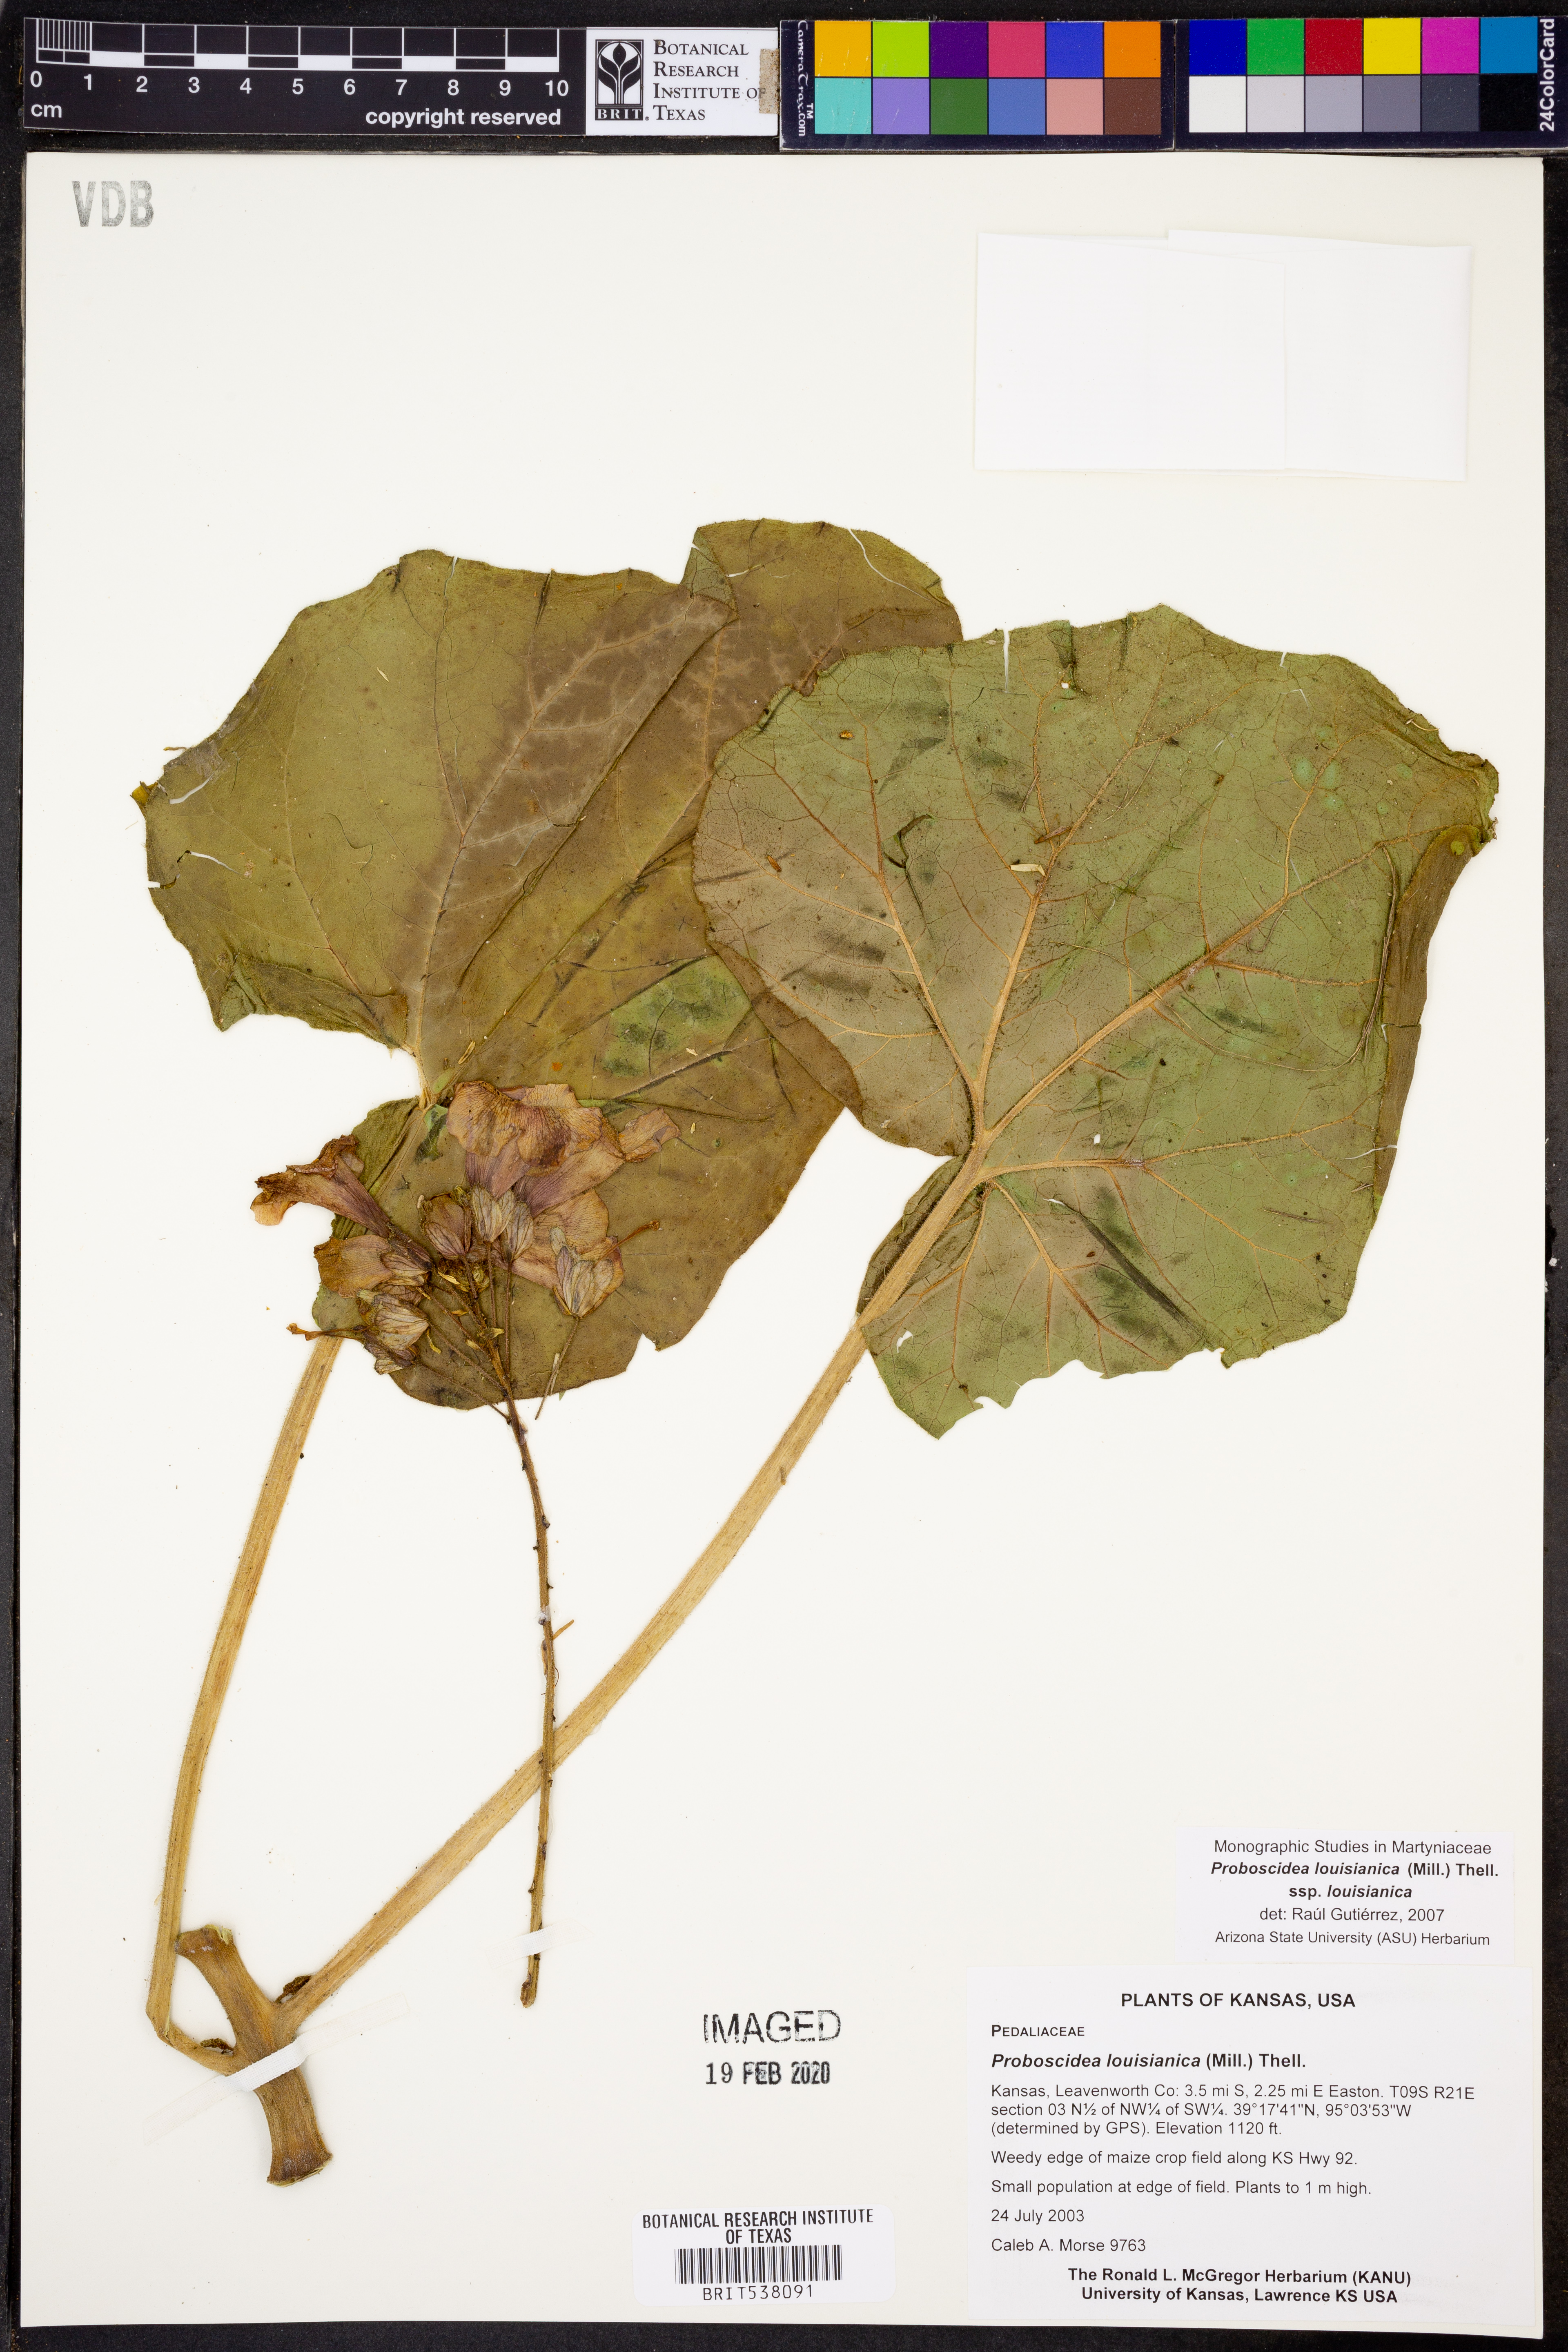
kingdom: Plantae
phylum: Tracheophyta
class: Magnoliopsida
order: Lamiales
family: Martyniaceae
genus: Proboscidea
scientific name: Proboscidea louisianica
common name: Elephant tusks
